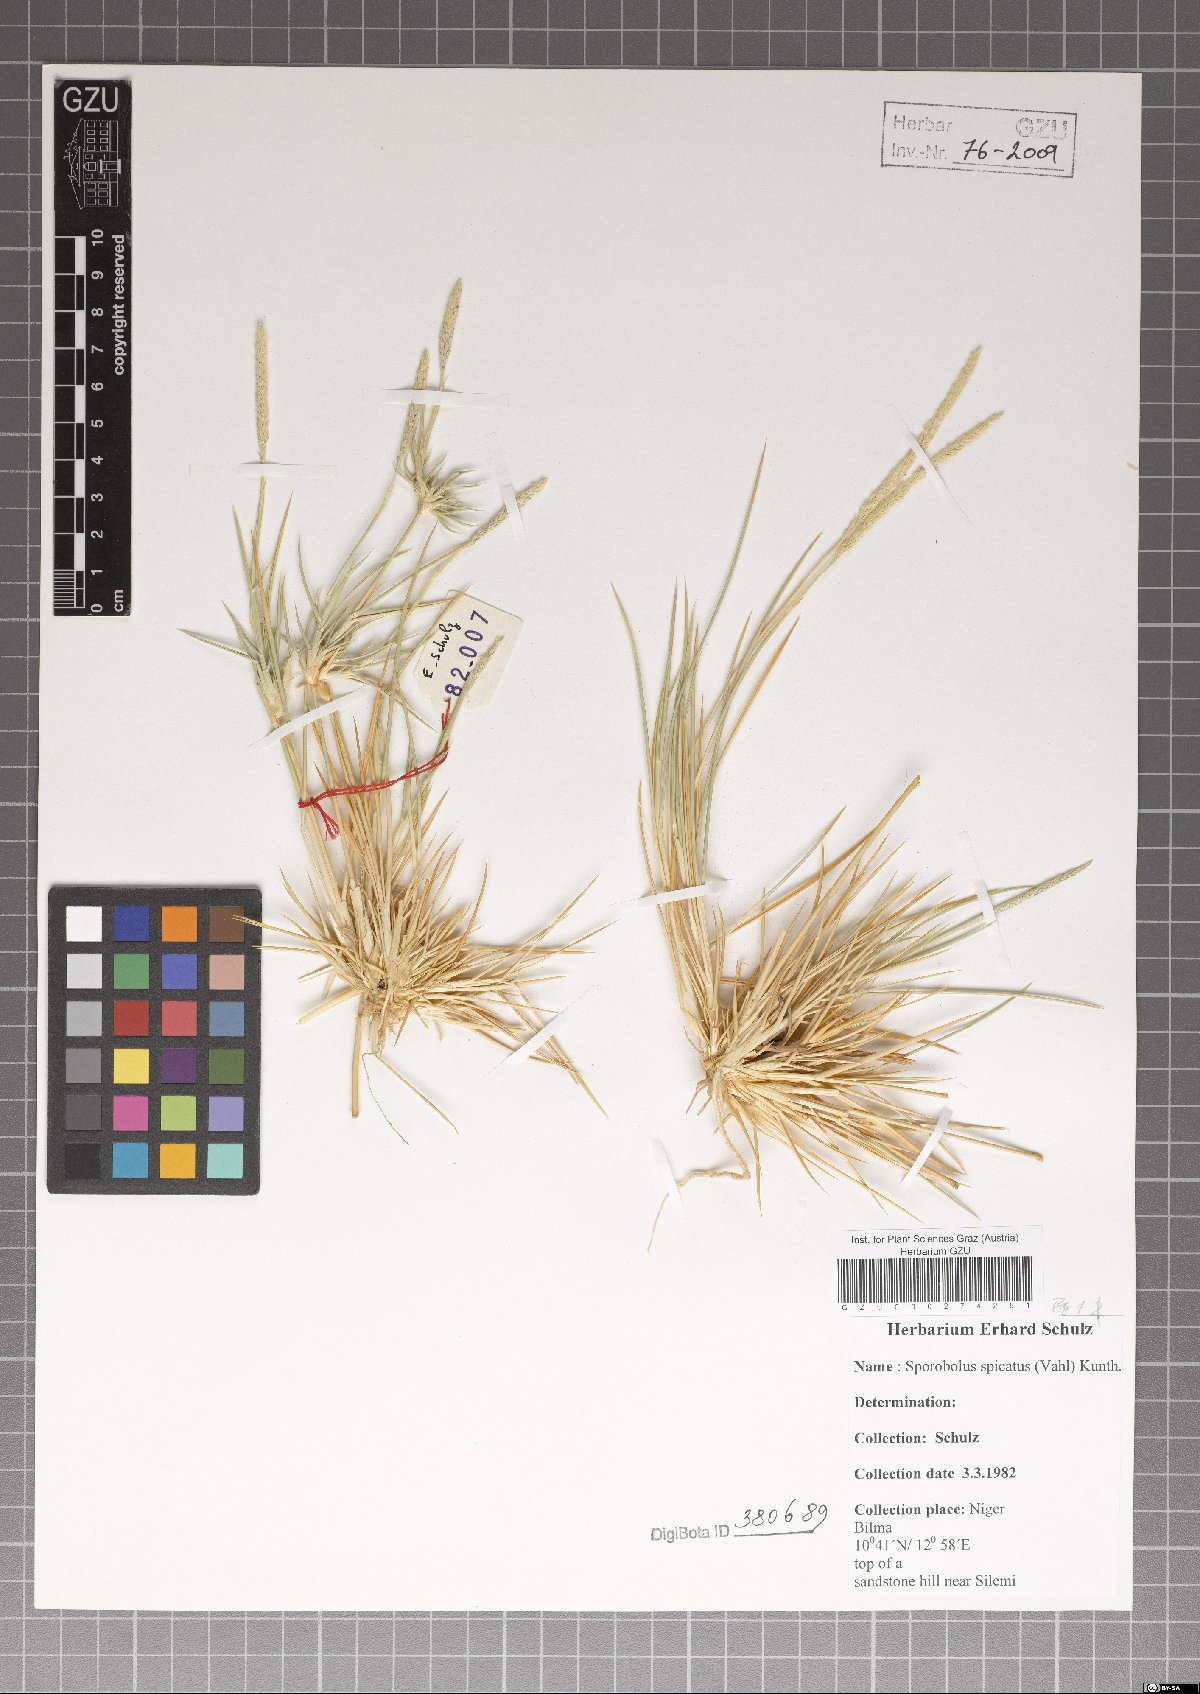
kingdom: Plantae
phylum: Tracheophyta
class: Liliopsida
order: Poales
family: Poaceae
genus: Sporobolus
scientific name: Sporobolus spicatus
